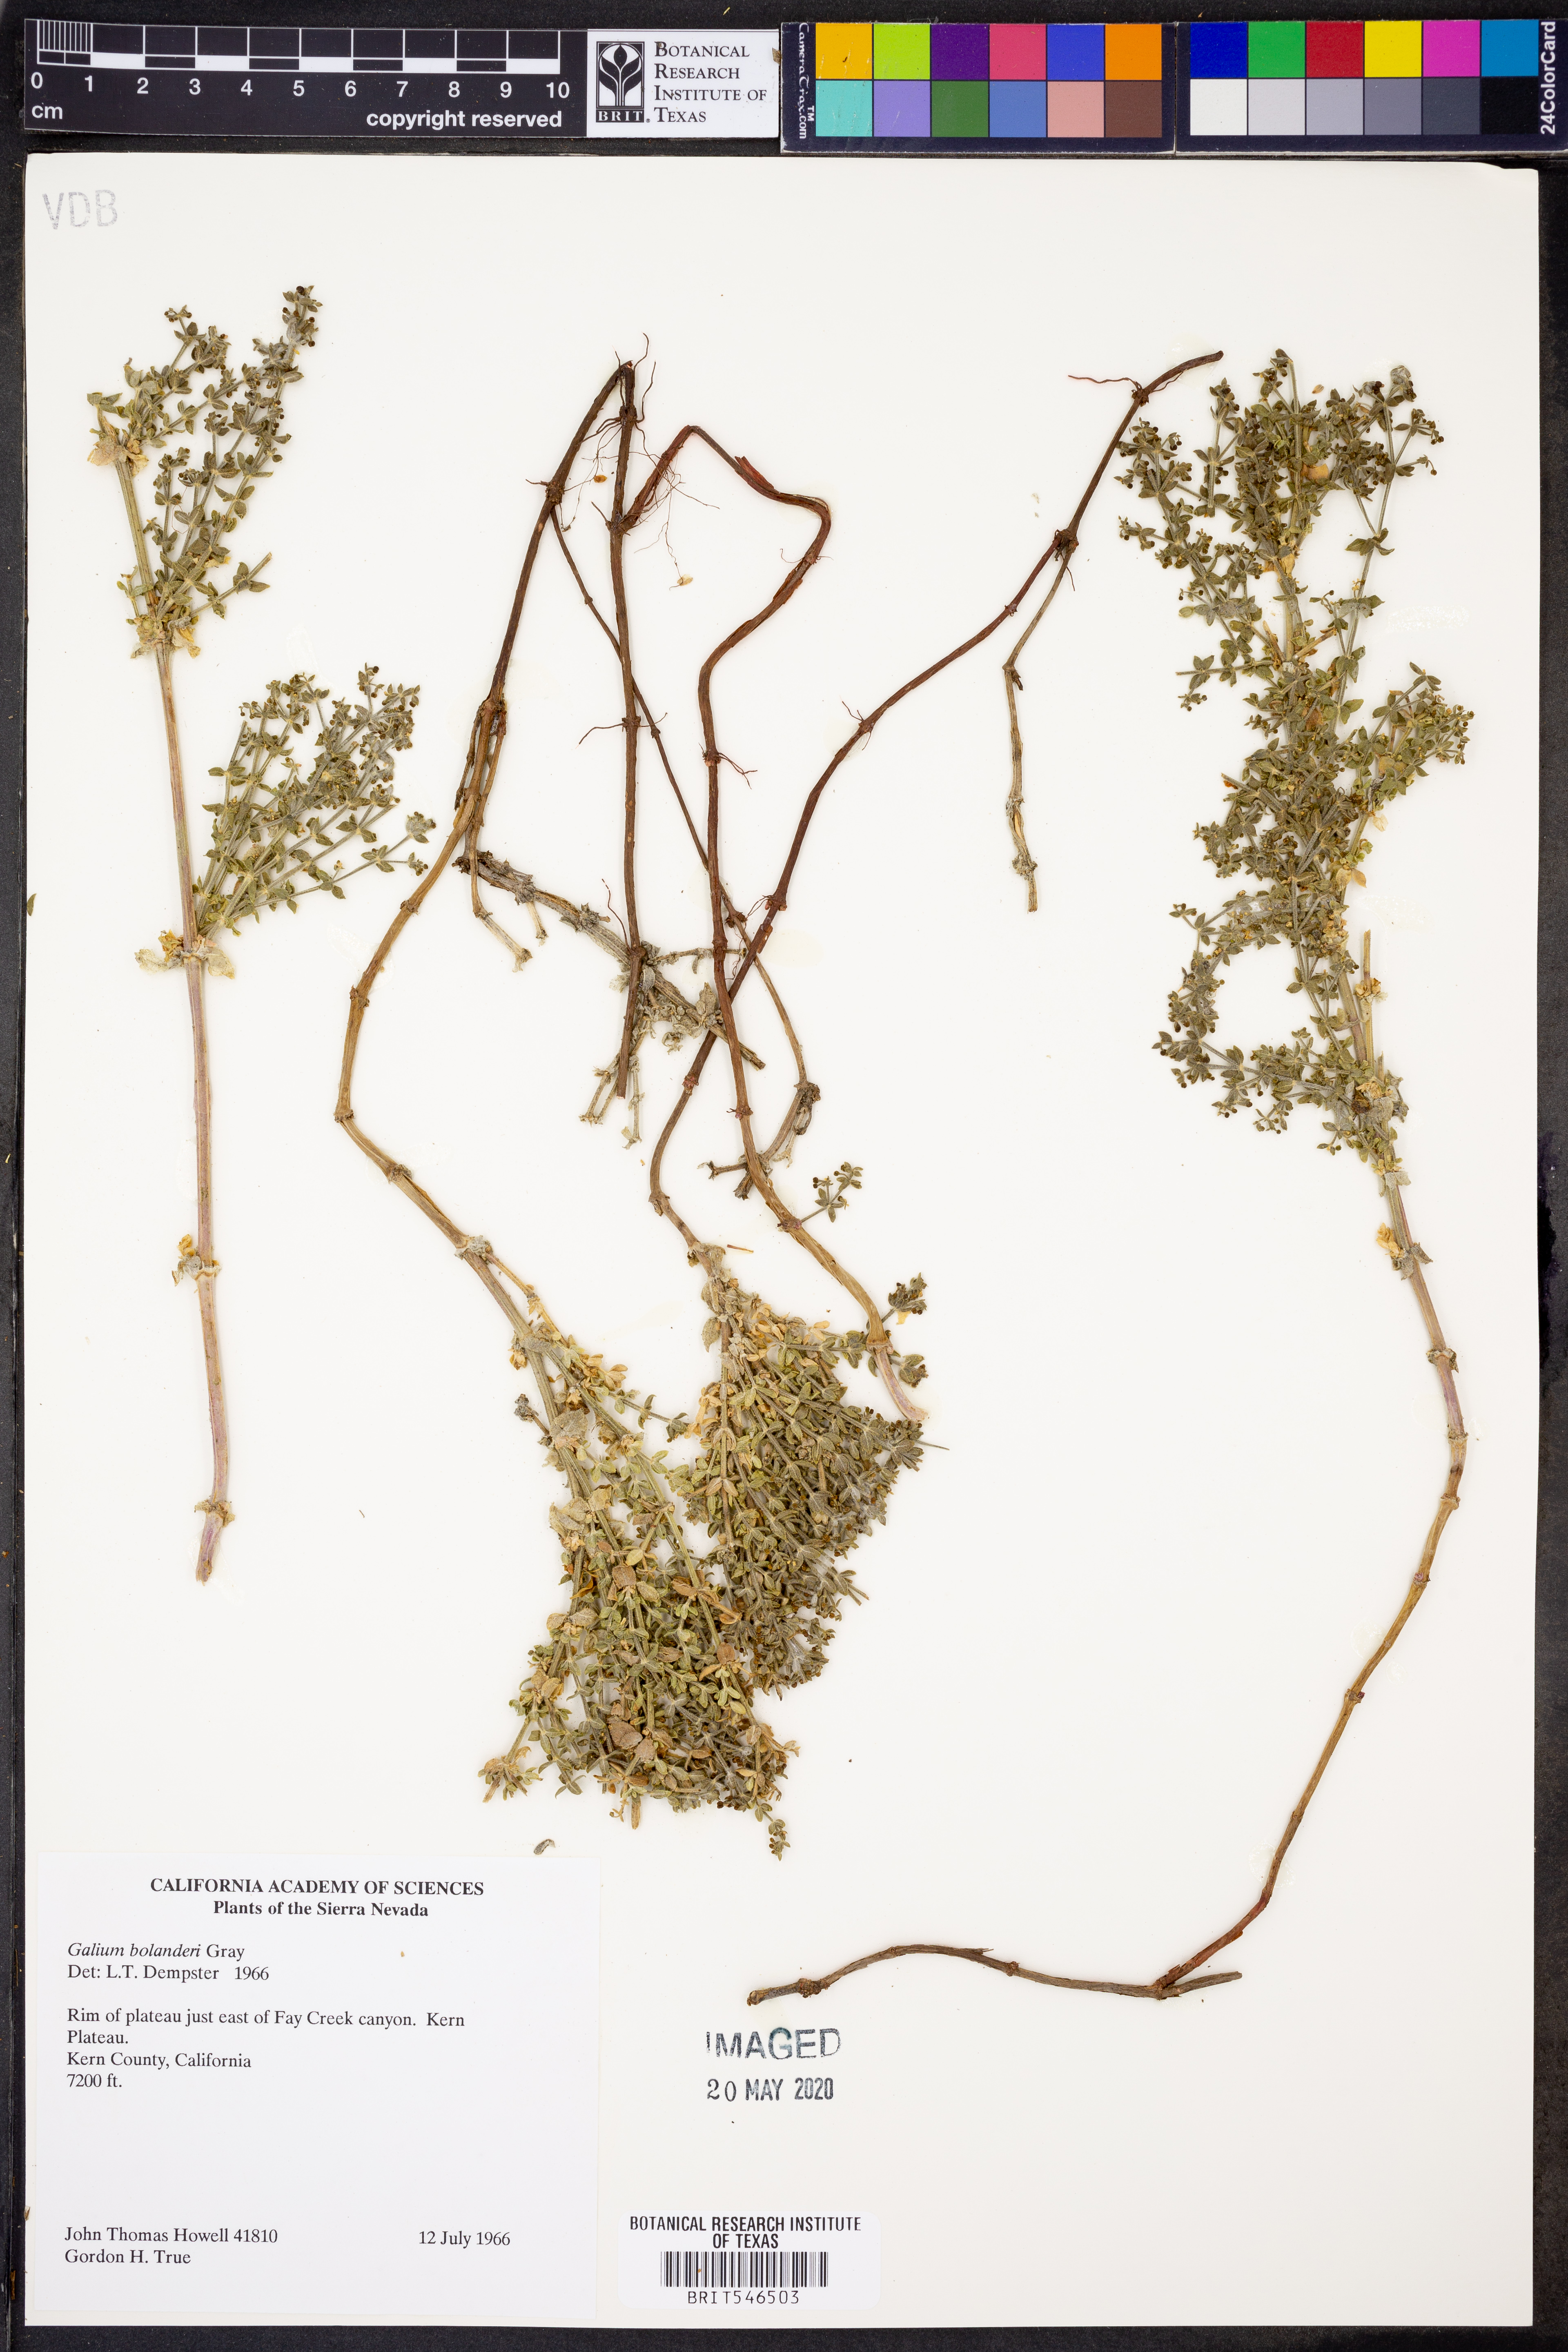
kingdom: Plantae
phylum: Tracheophyta
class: Magnoliopsida
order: Gentianales
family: Rubiaceae
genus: Galium
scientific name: Galium bolanderi
